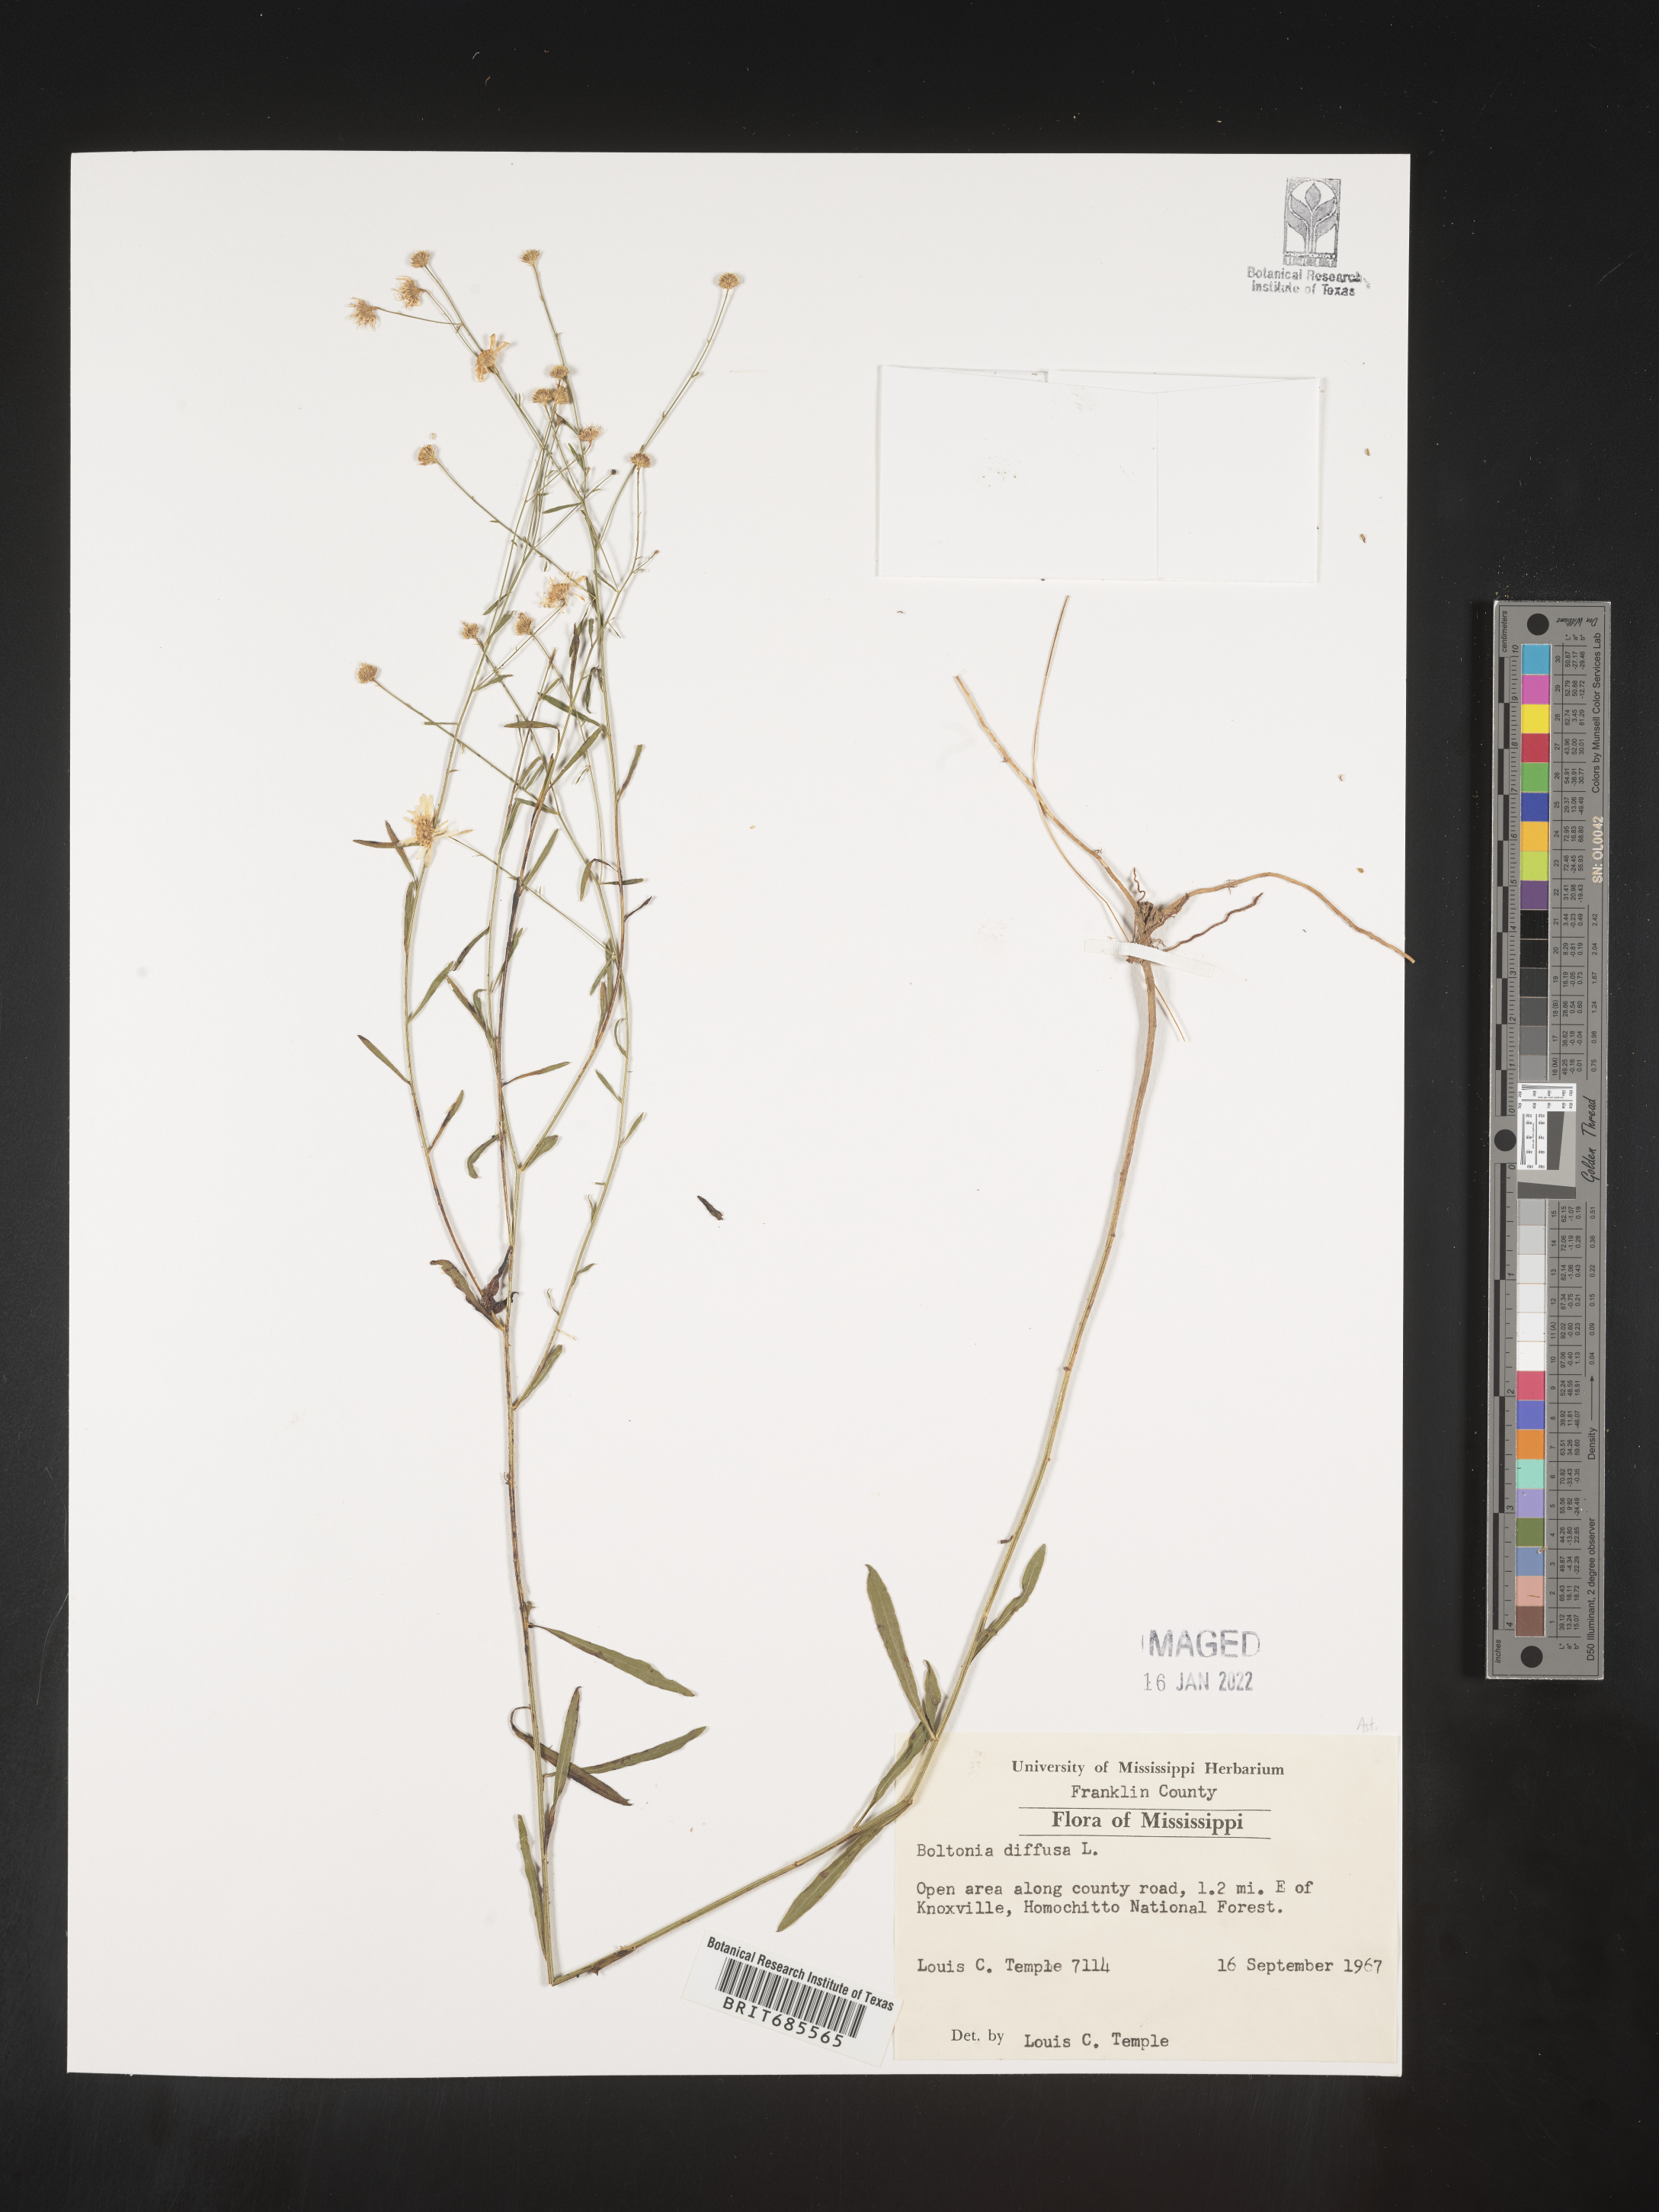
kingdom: Plantae
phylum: Tracheophyta
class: Magnoliopsida
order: Asterales
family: Asteraceae
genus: Boltonia
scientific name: Boltonia diffusa
